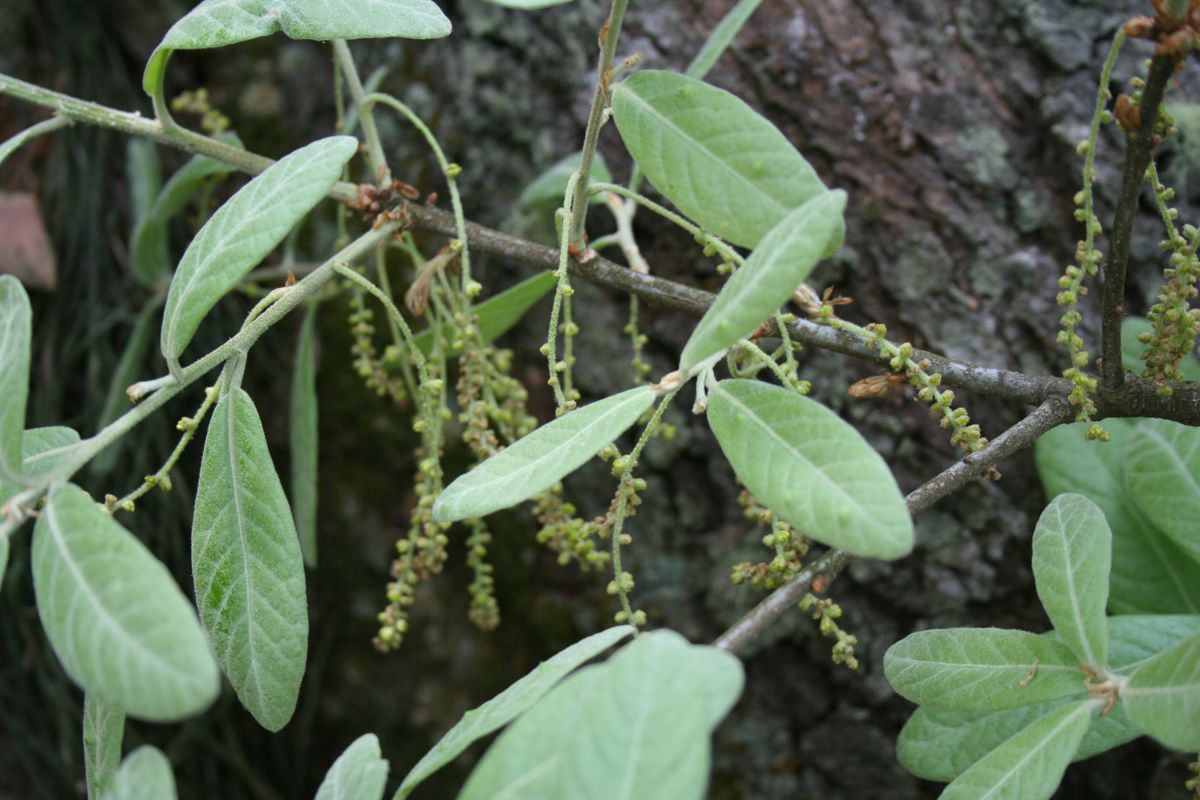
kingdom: Plantae
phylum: Tracheophyta
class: Magnoliopsida
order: Fagales
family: Fagaceae
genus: Quercus
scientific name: Quercus elliptica
